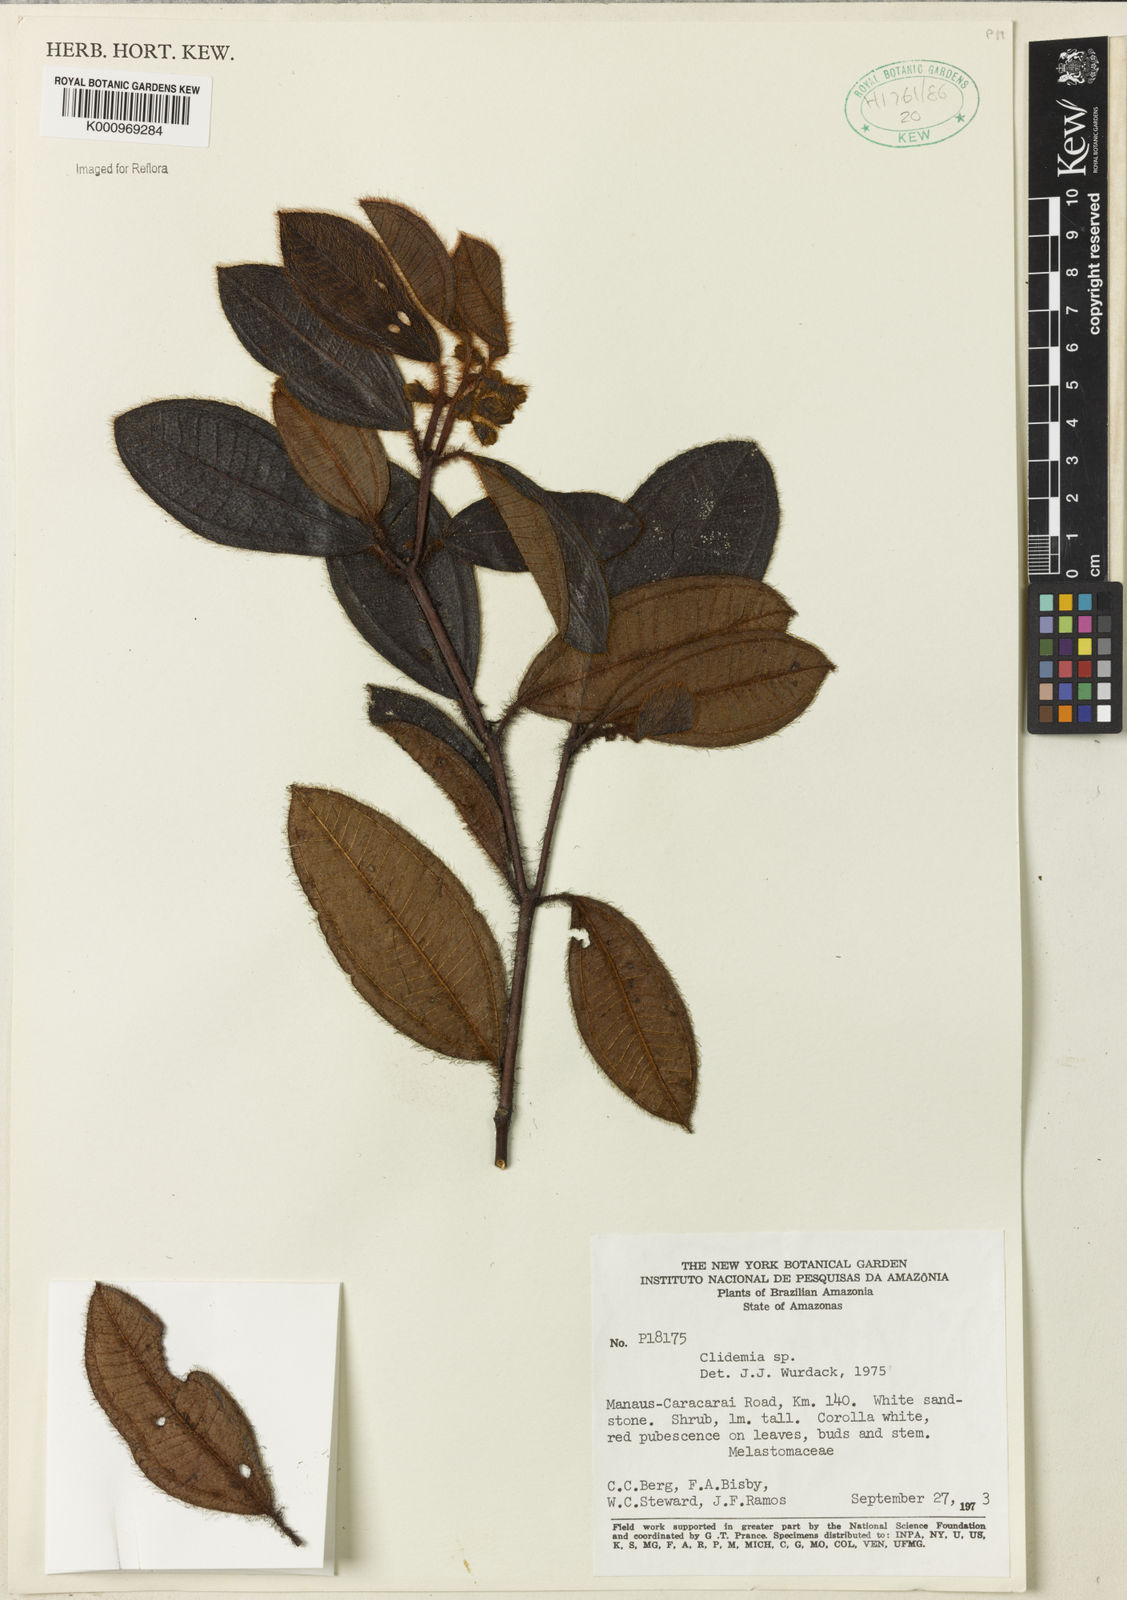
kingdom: Plantae
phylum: Tracheophyta
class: Magnoliopsida
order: Myrtales
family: Melastomataceae
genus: Miconia
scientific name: Miconia papillosperma
